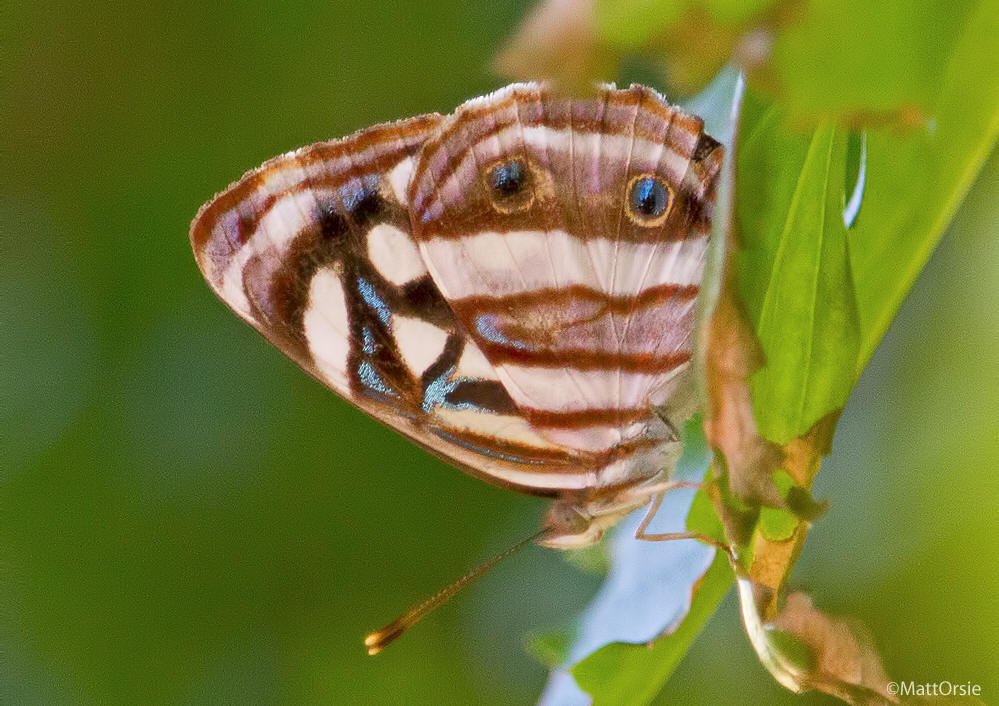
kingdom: Animalia
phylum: Arthropoda
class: Insecta
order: Lepidoptera
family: Nymphalidae
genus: Dynamine
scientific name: Dynamine mylitta
